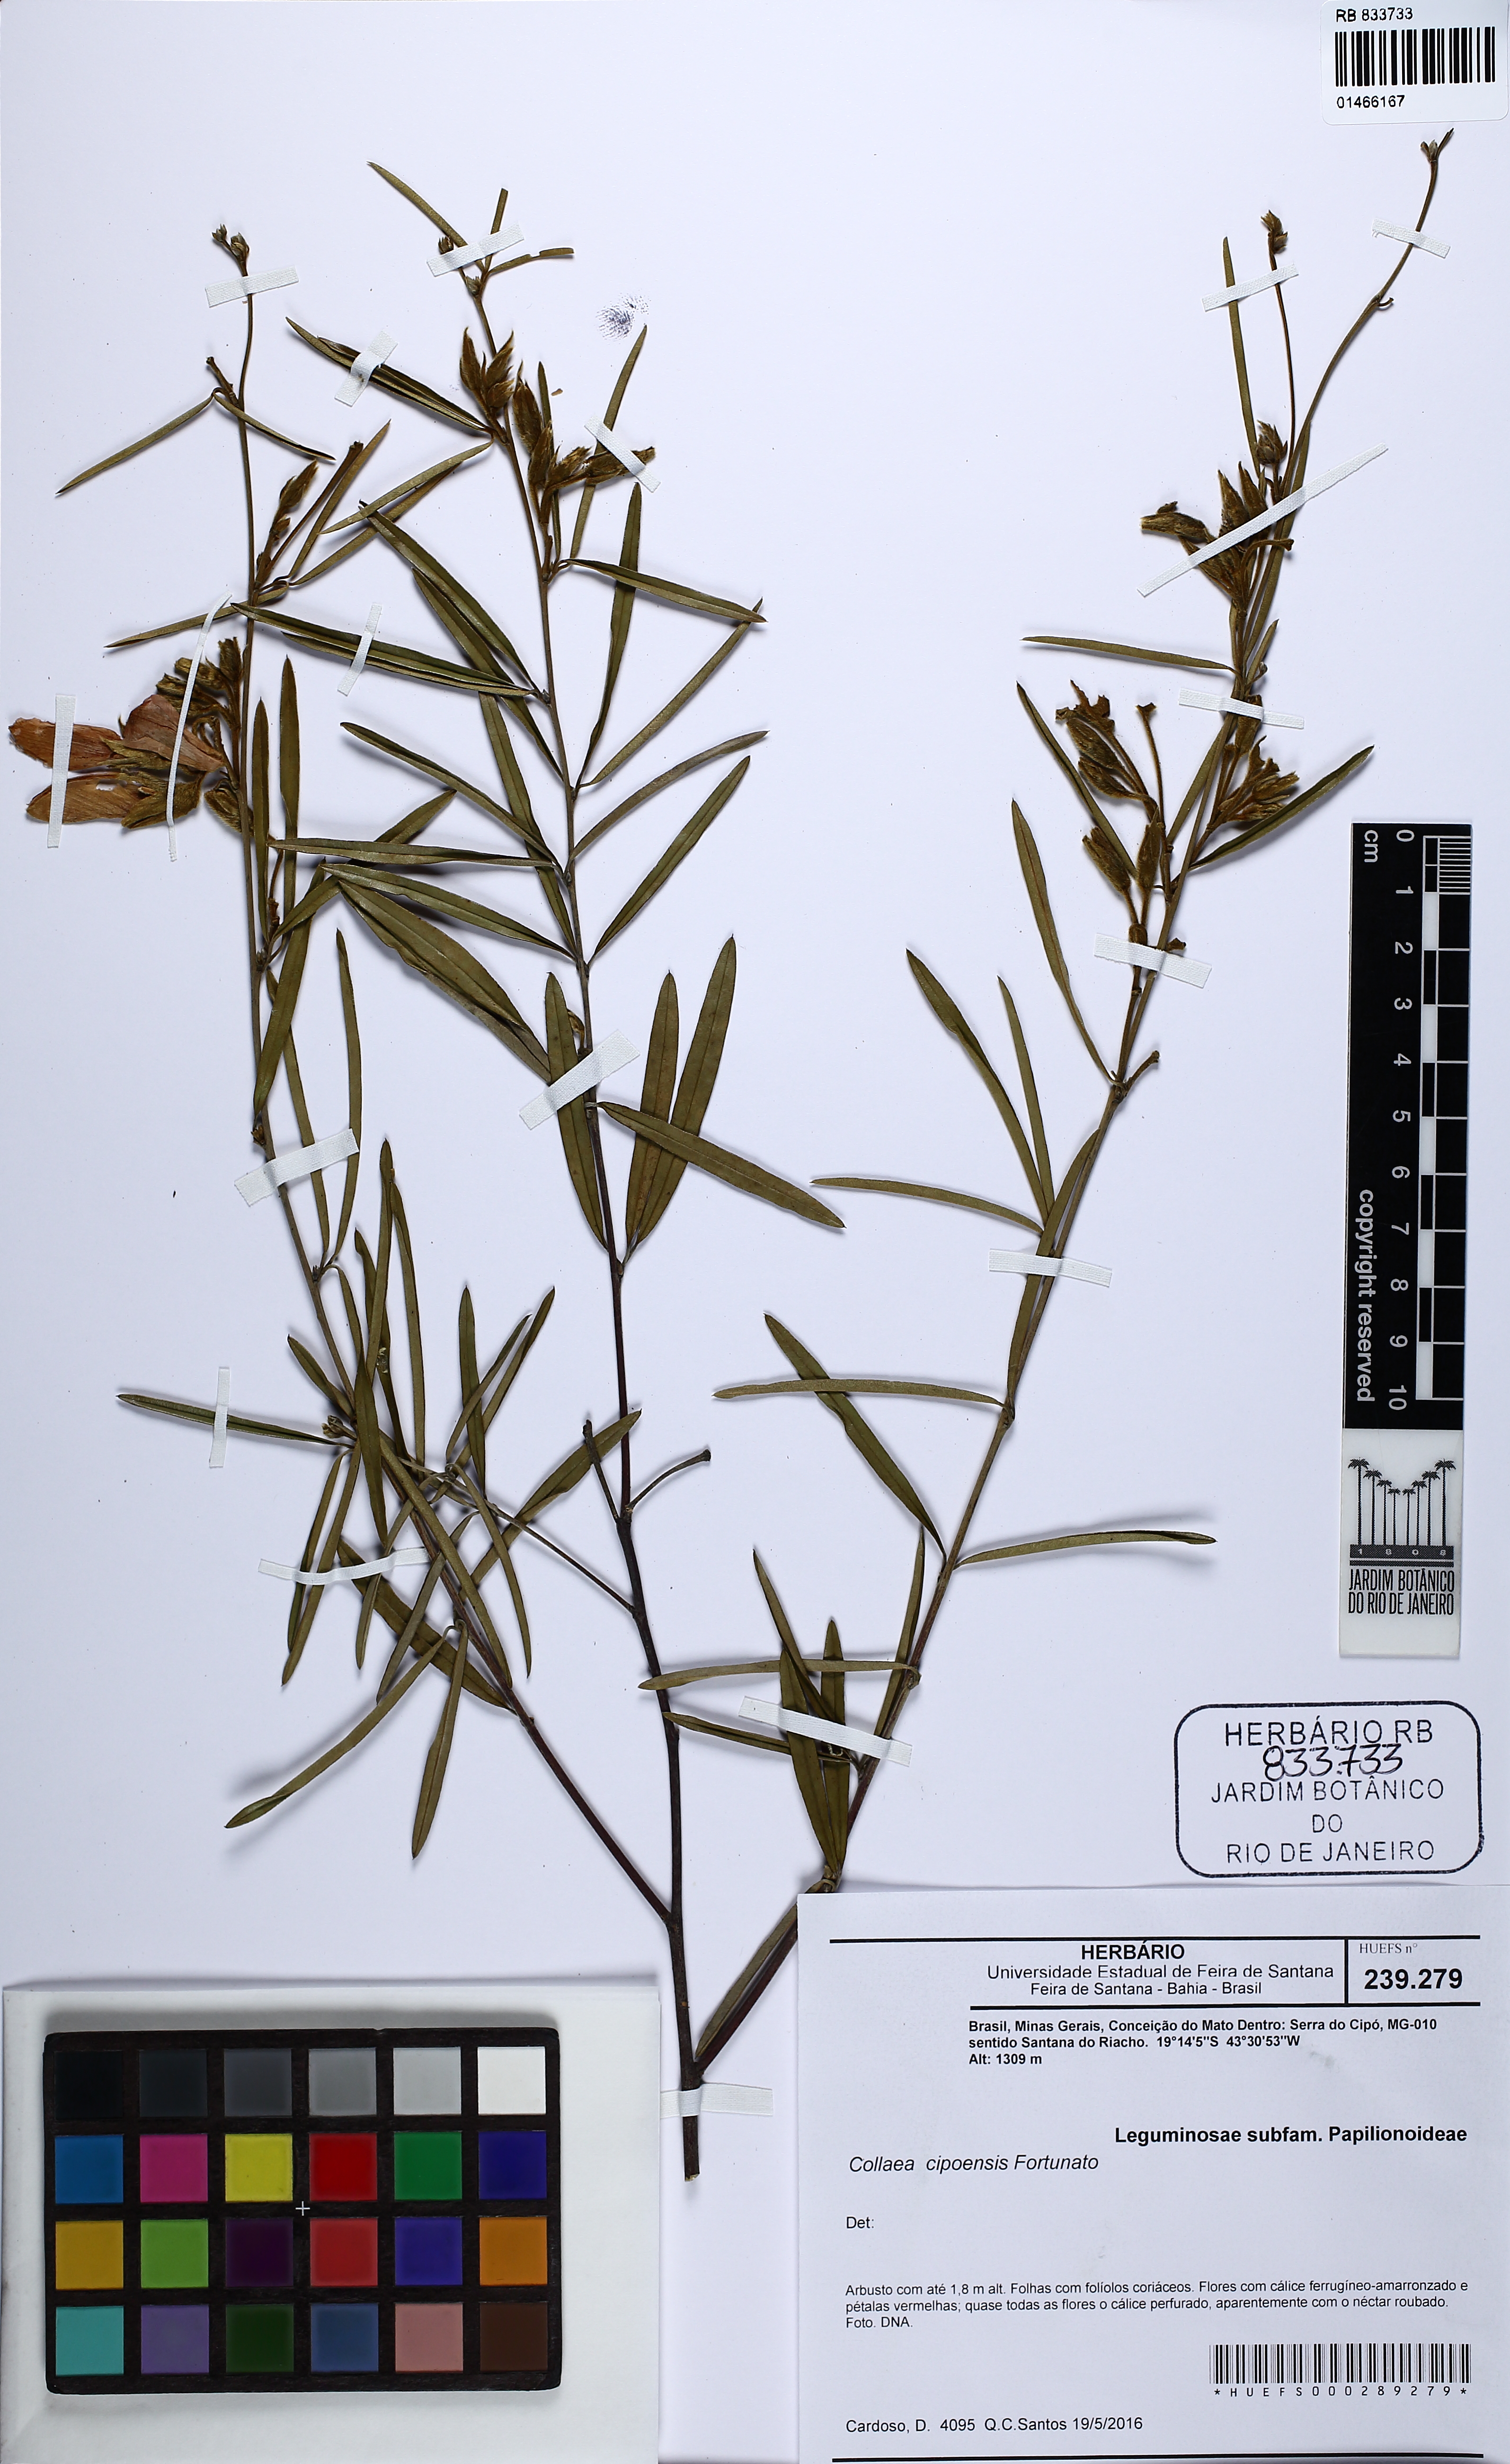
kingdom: Plantae
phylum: Tracheophyta
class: Magnoliopsida
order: Fabales
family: Fabaceae
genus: Collaea
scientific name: Collaea cipoensis
